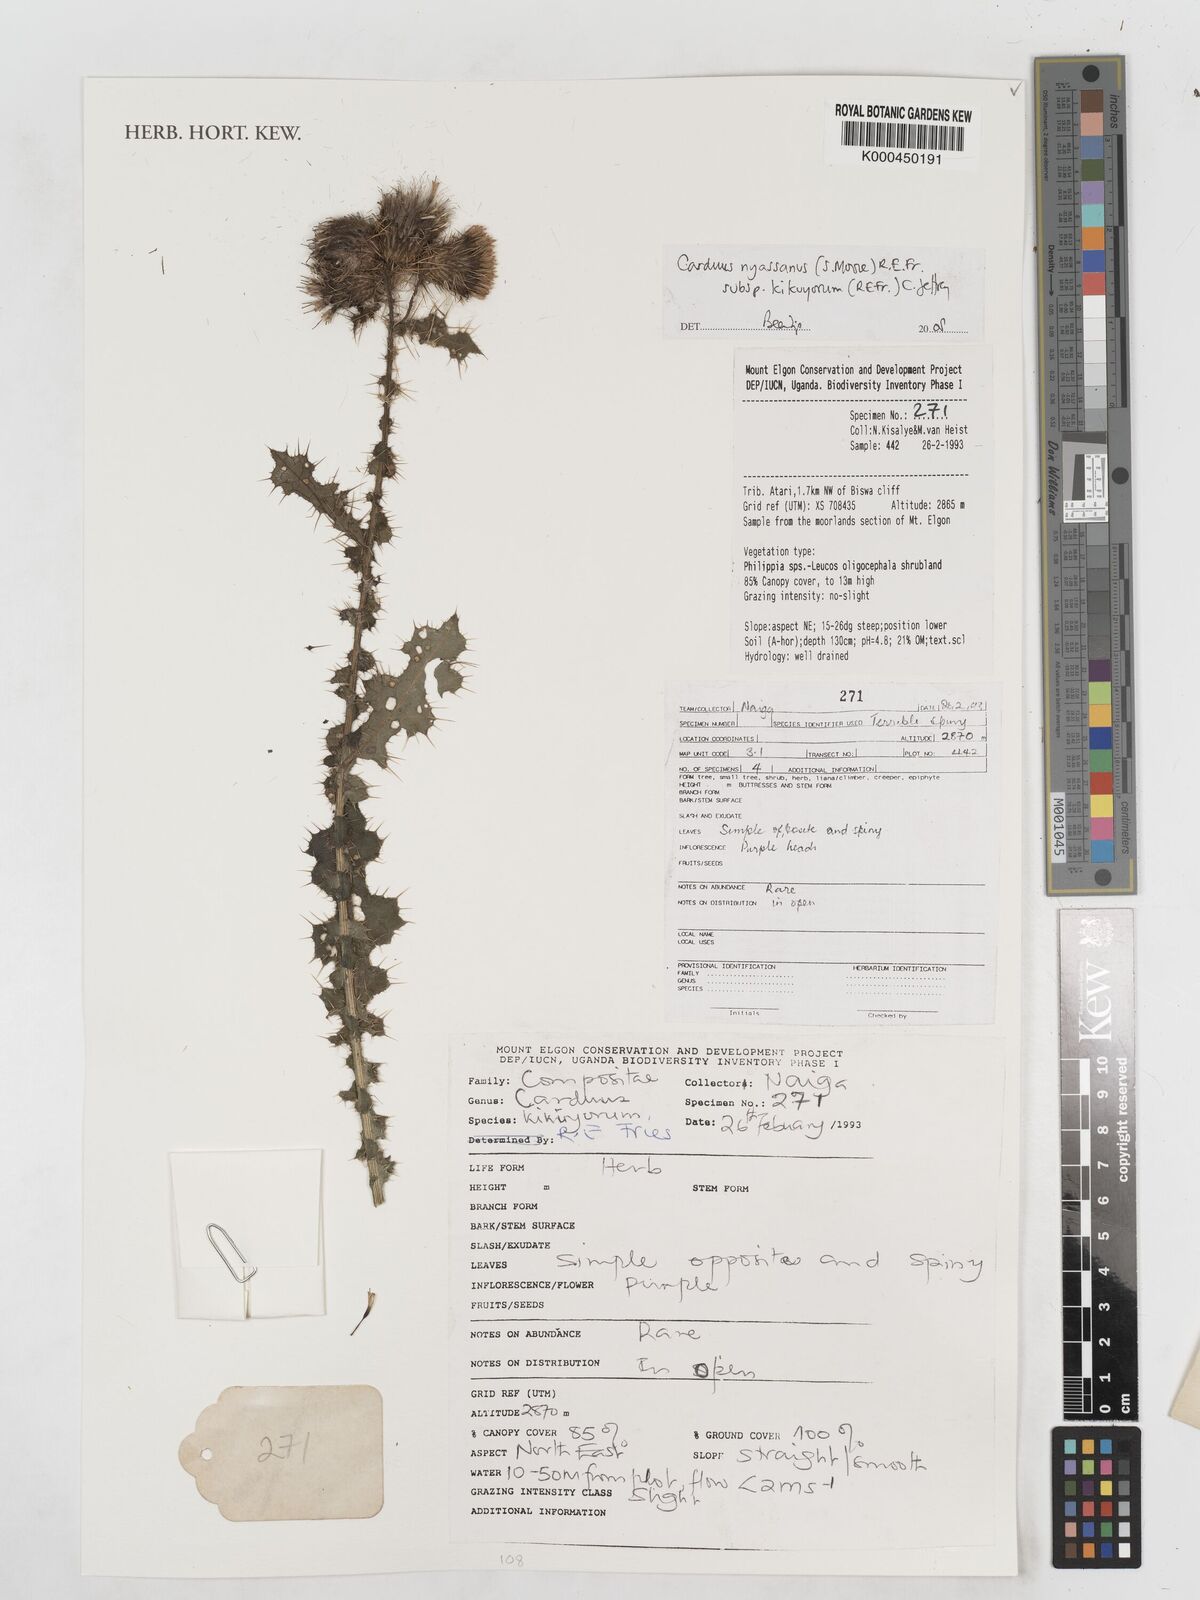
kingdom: Plantae
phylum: Tracheophyta
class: Magnoliopsida
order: Asterales
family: Asteraceae
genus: Carduus
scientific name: Carduus nyassanus
